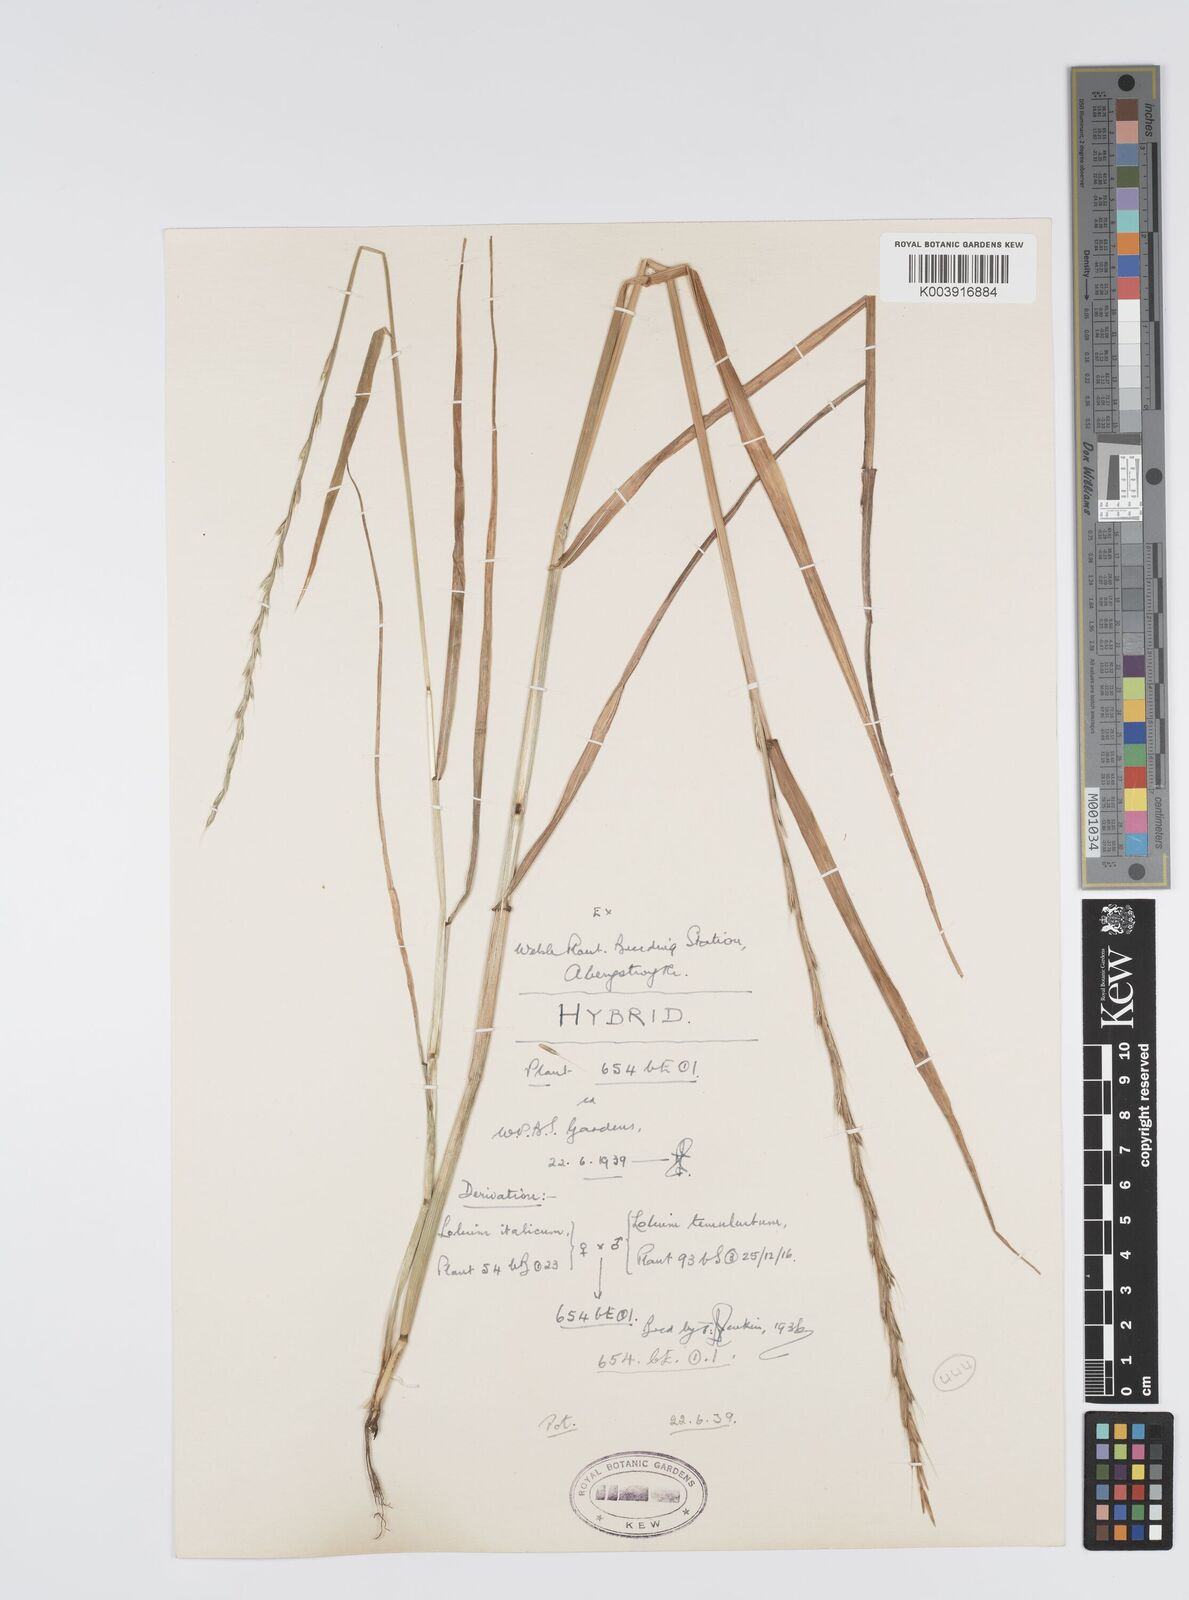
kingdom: Plantae
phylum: Tracheophyta
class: Liliopsida
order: Poales
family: Poaceae
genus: Lolium
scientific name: Lolium multiflorum
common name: Annual ryegrass
